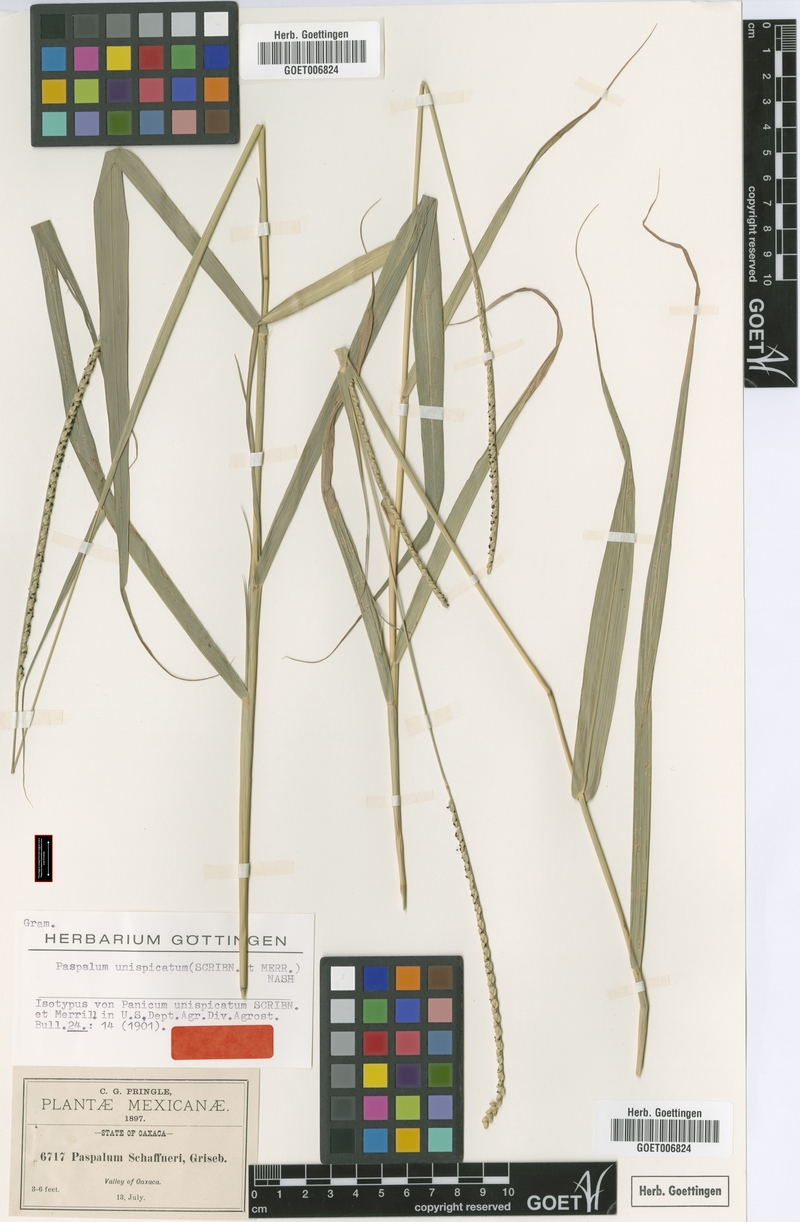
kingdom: Plantae
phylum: Tracheophyta
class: Liliopsida
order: Poales
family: Poaceae
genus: Paspalum
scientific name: Paspalum unispicatum
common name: Onespike paspalum
